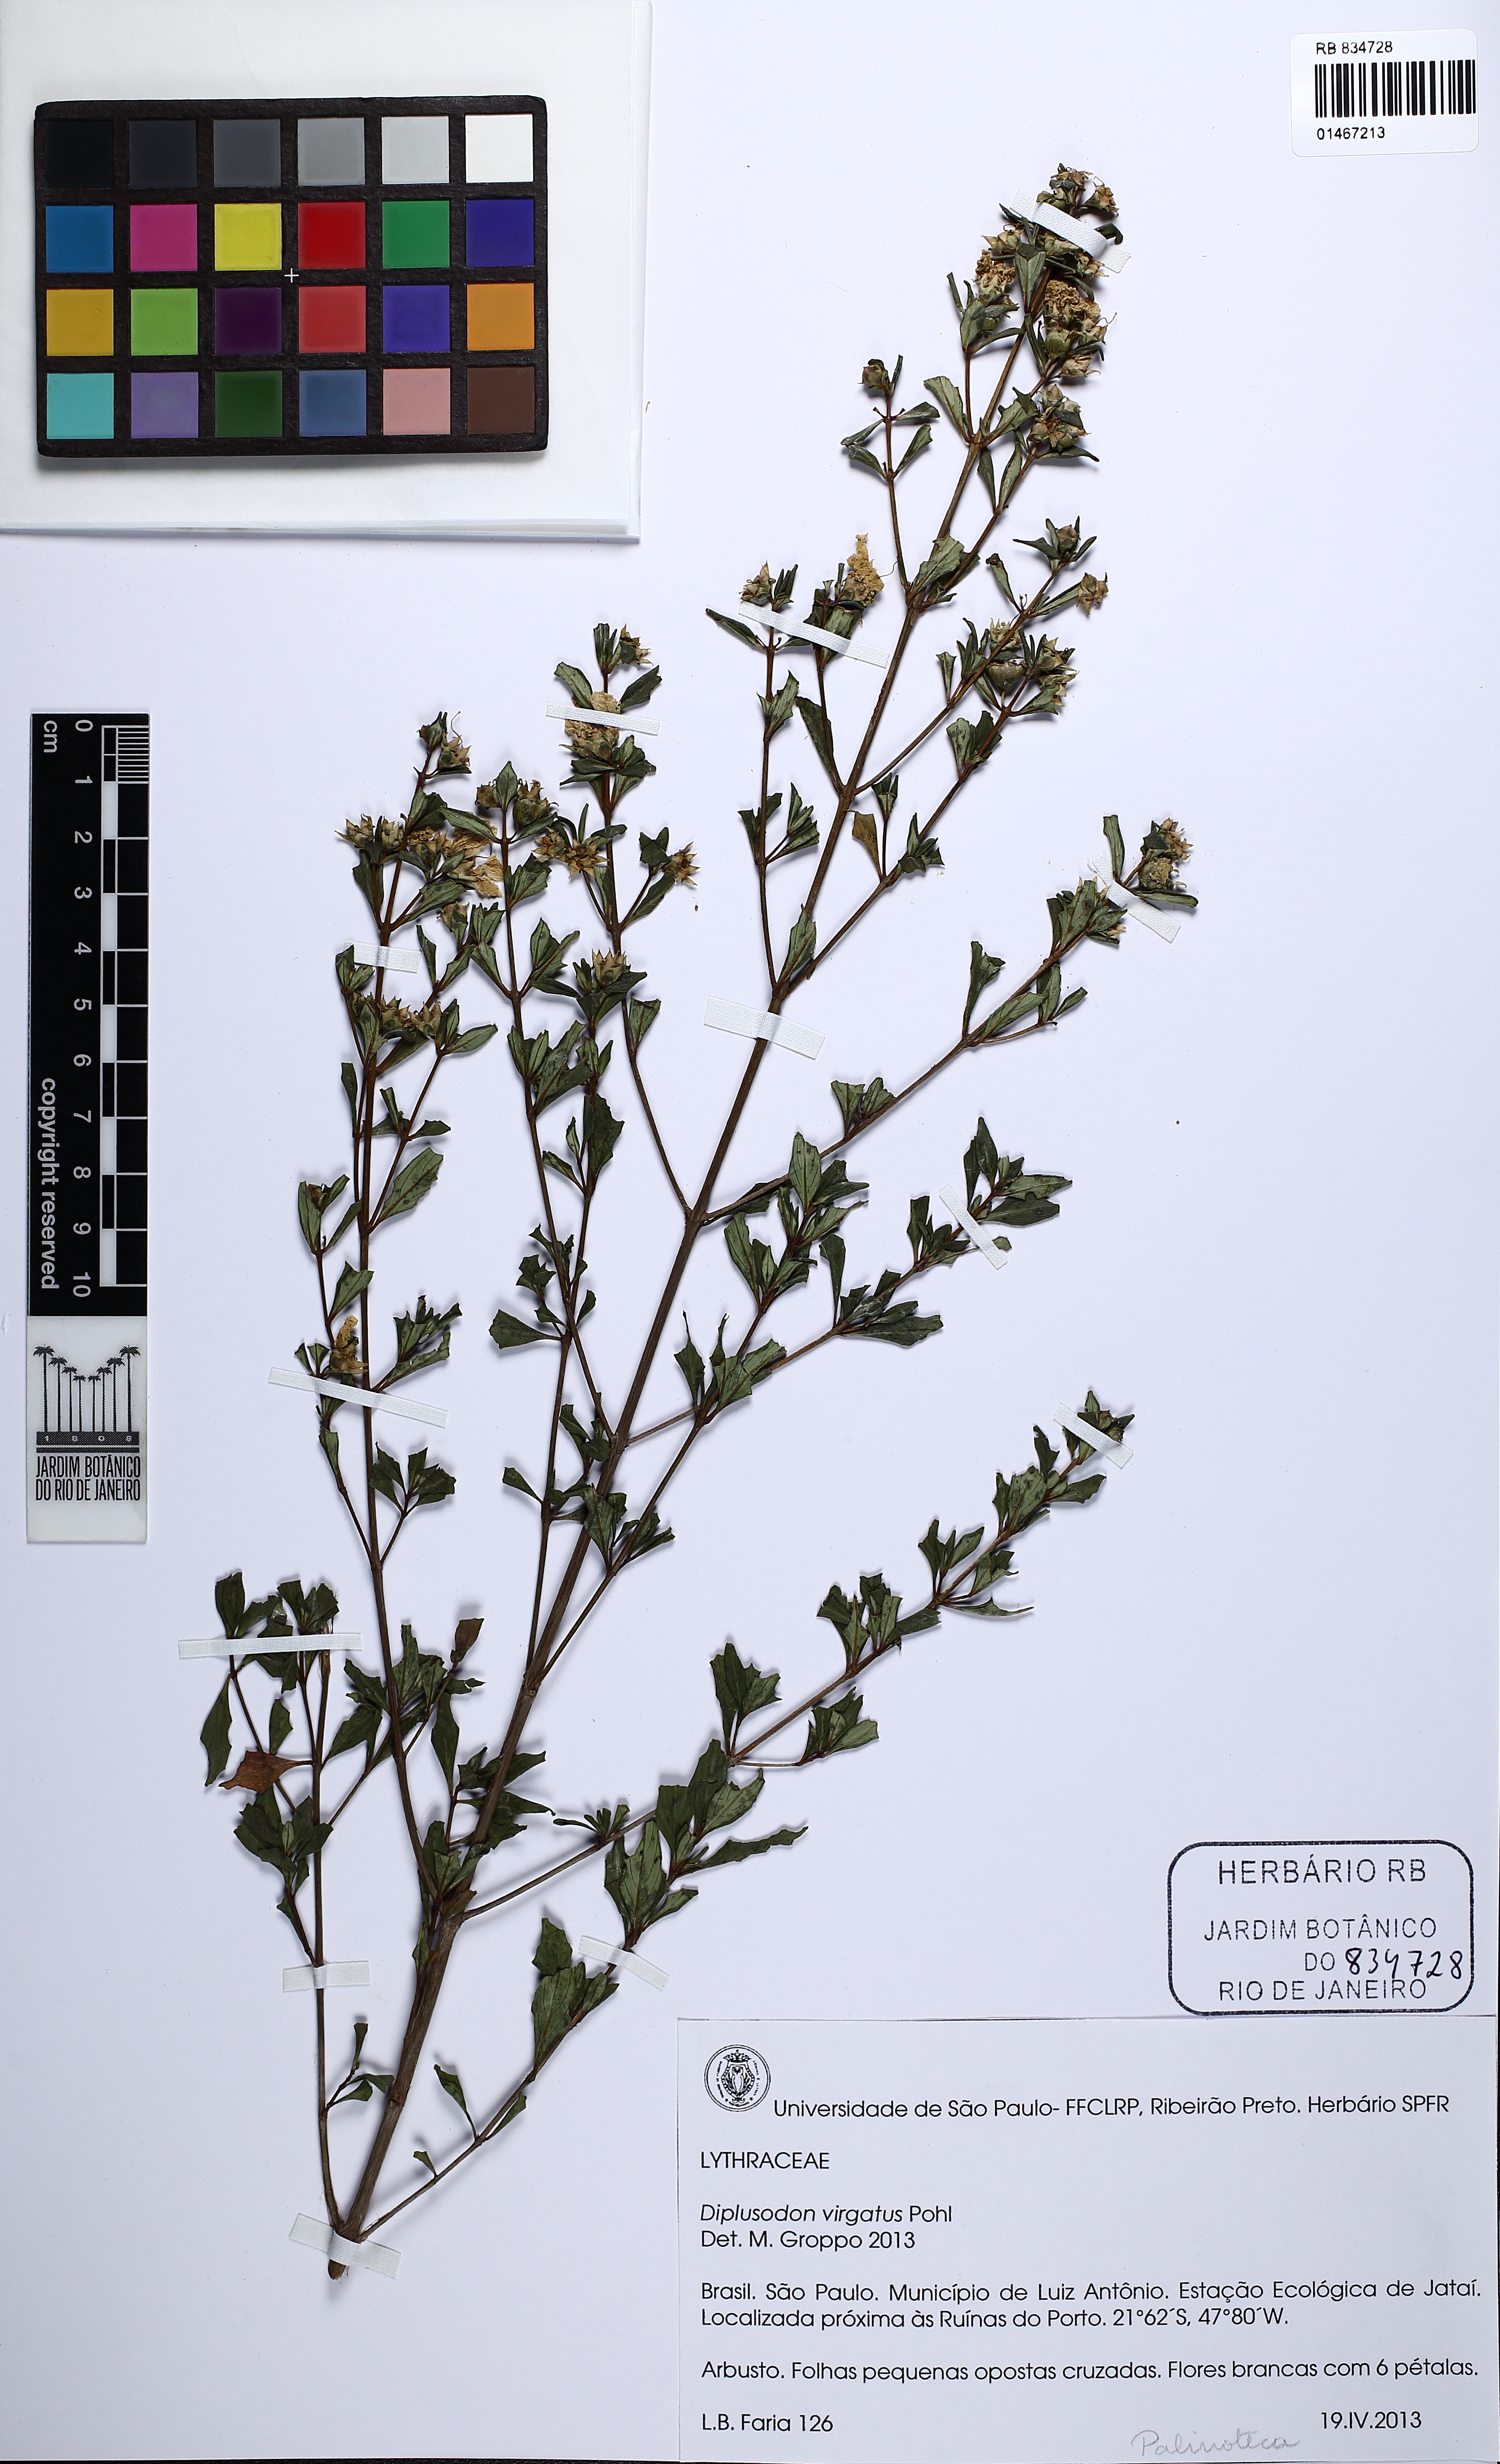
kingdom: Plantae
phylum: Tracheophyta
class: Magnoliopsida
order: Myrtales
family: Lythraceae
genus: Diplusodon
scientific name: Diplusodon virgatus
